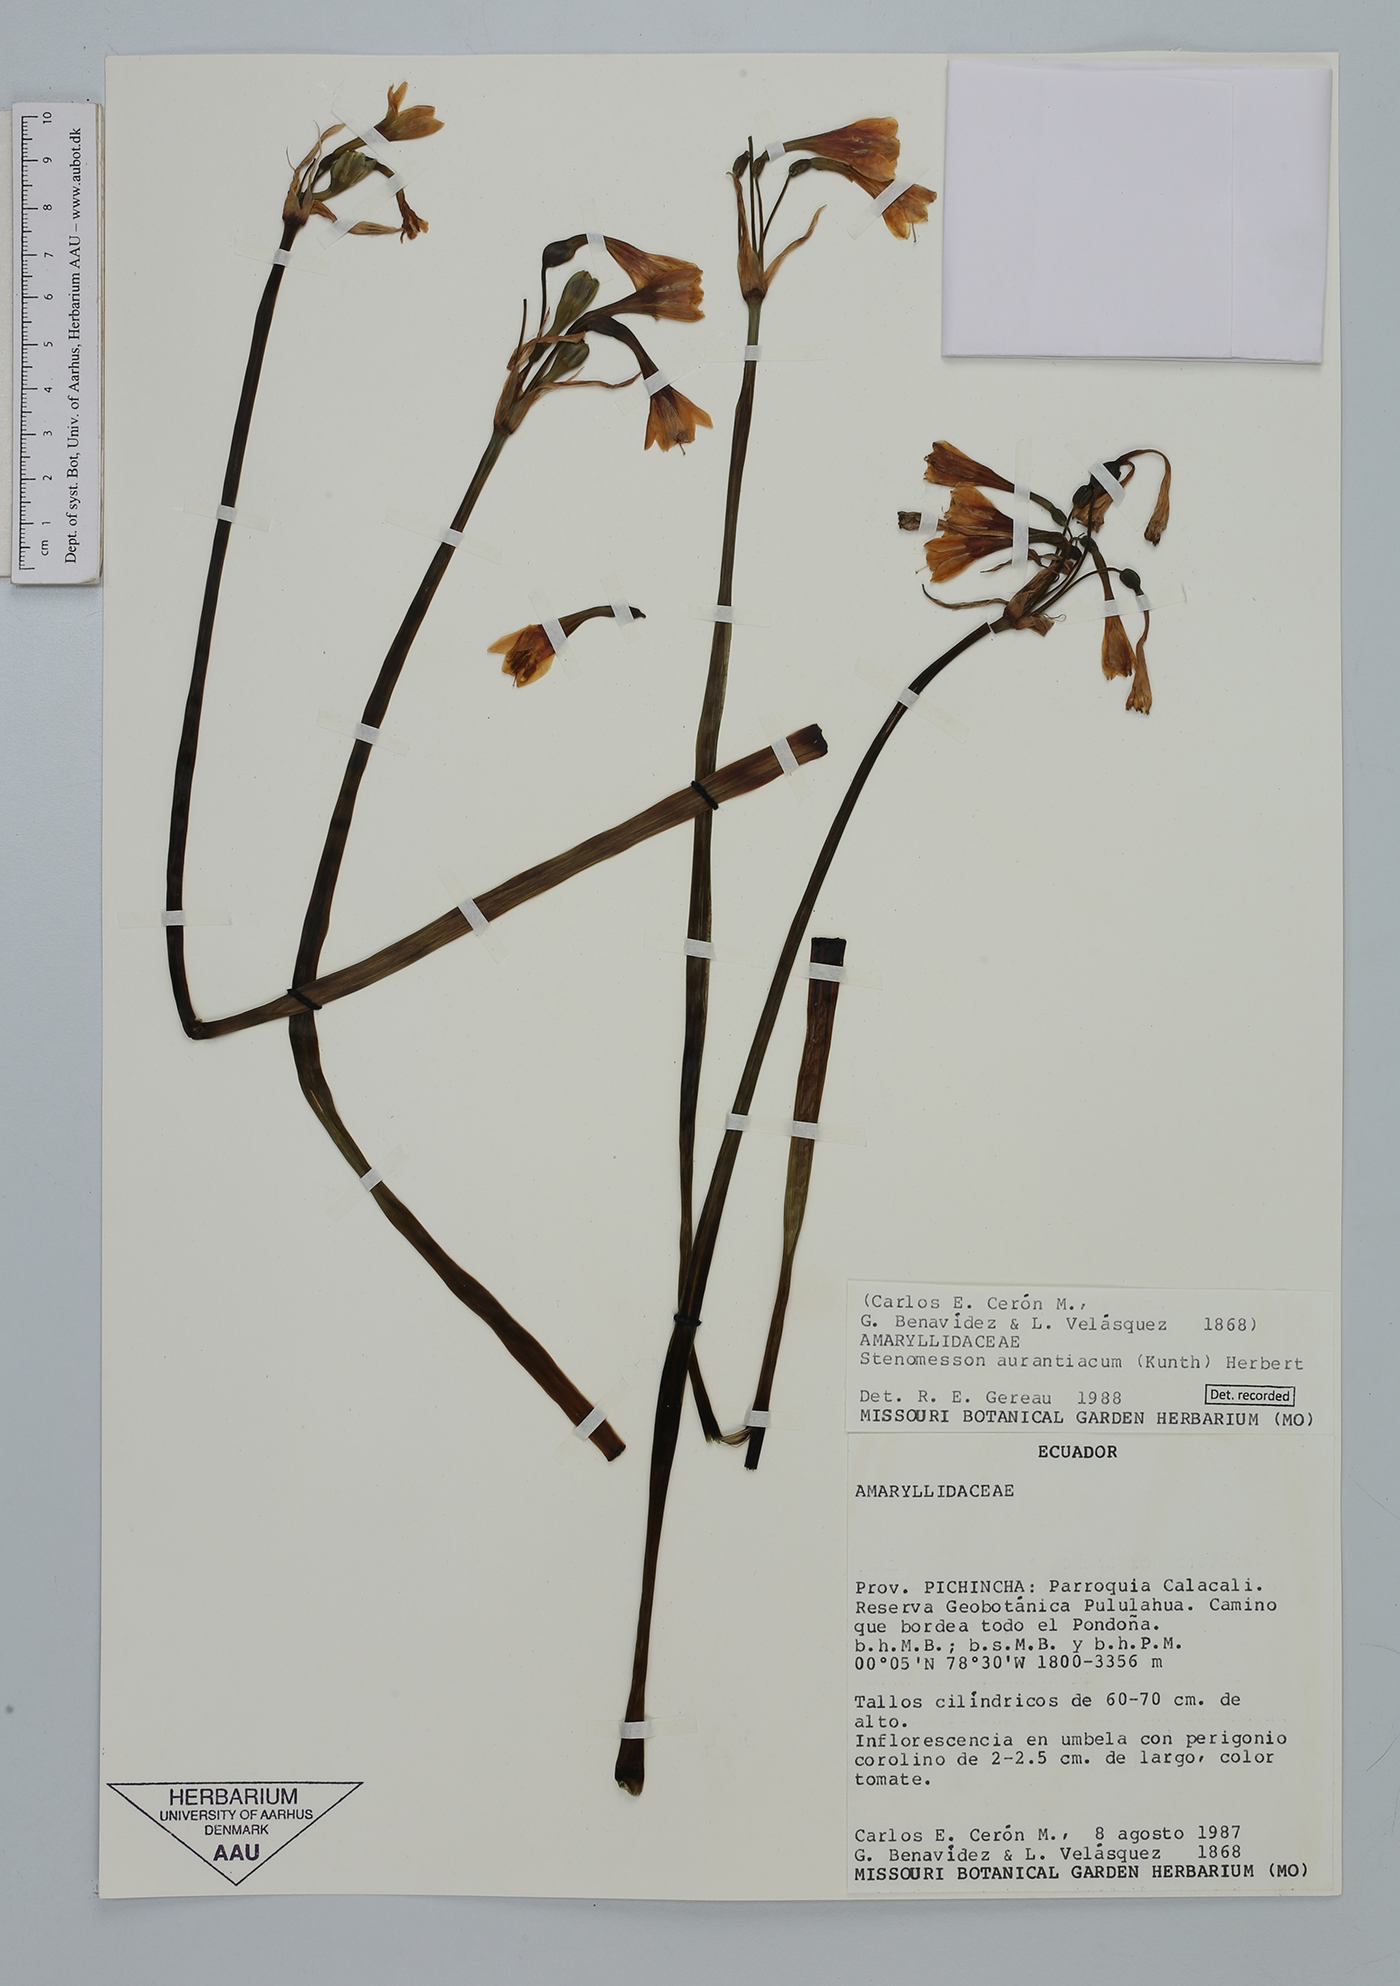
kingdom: Plantae
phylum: Tracheophyta
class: Liliopsida
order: Asparagales
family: Amaryllidaceae
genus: Stenomesson
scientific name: Stenomesson aurantiacum
